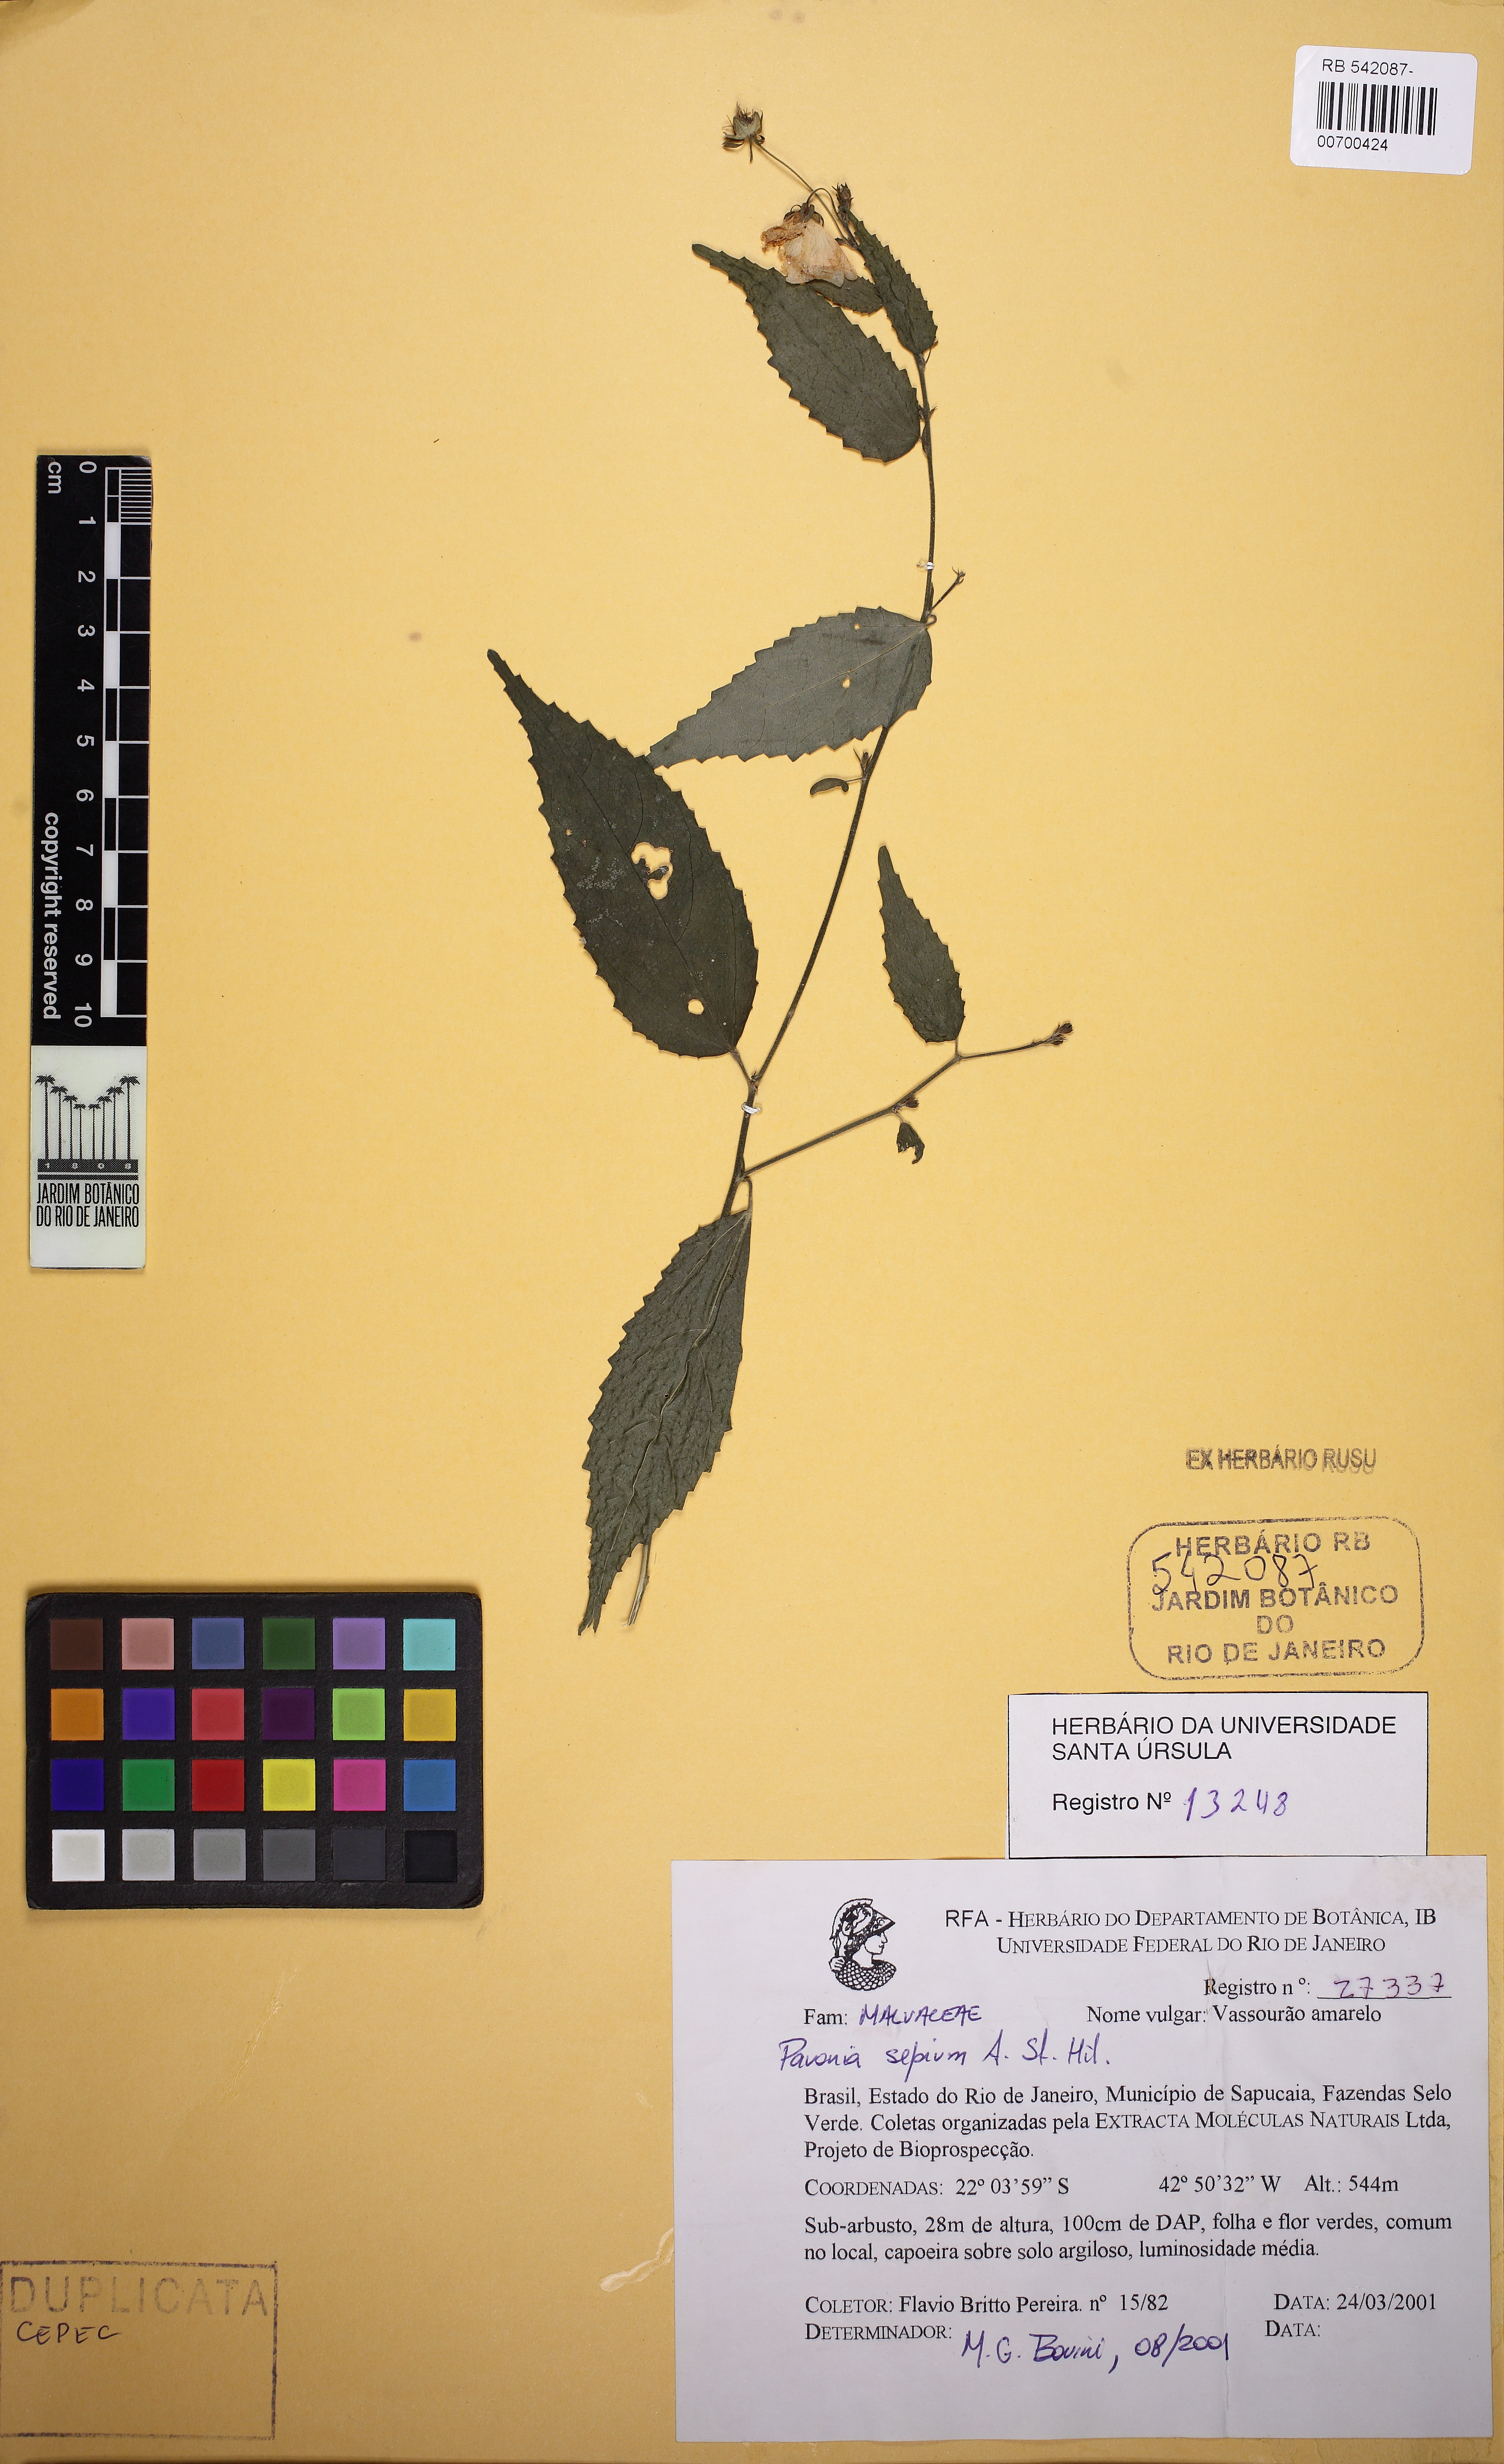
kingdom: Plantae
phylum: Tracheophyta
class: Magnoliopsida
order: Malvales
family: Malvaceae
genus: Pavonia
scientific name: Pavonia sepium
